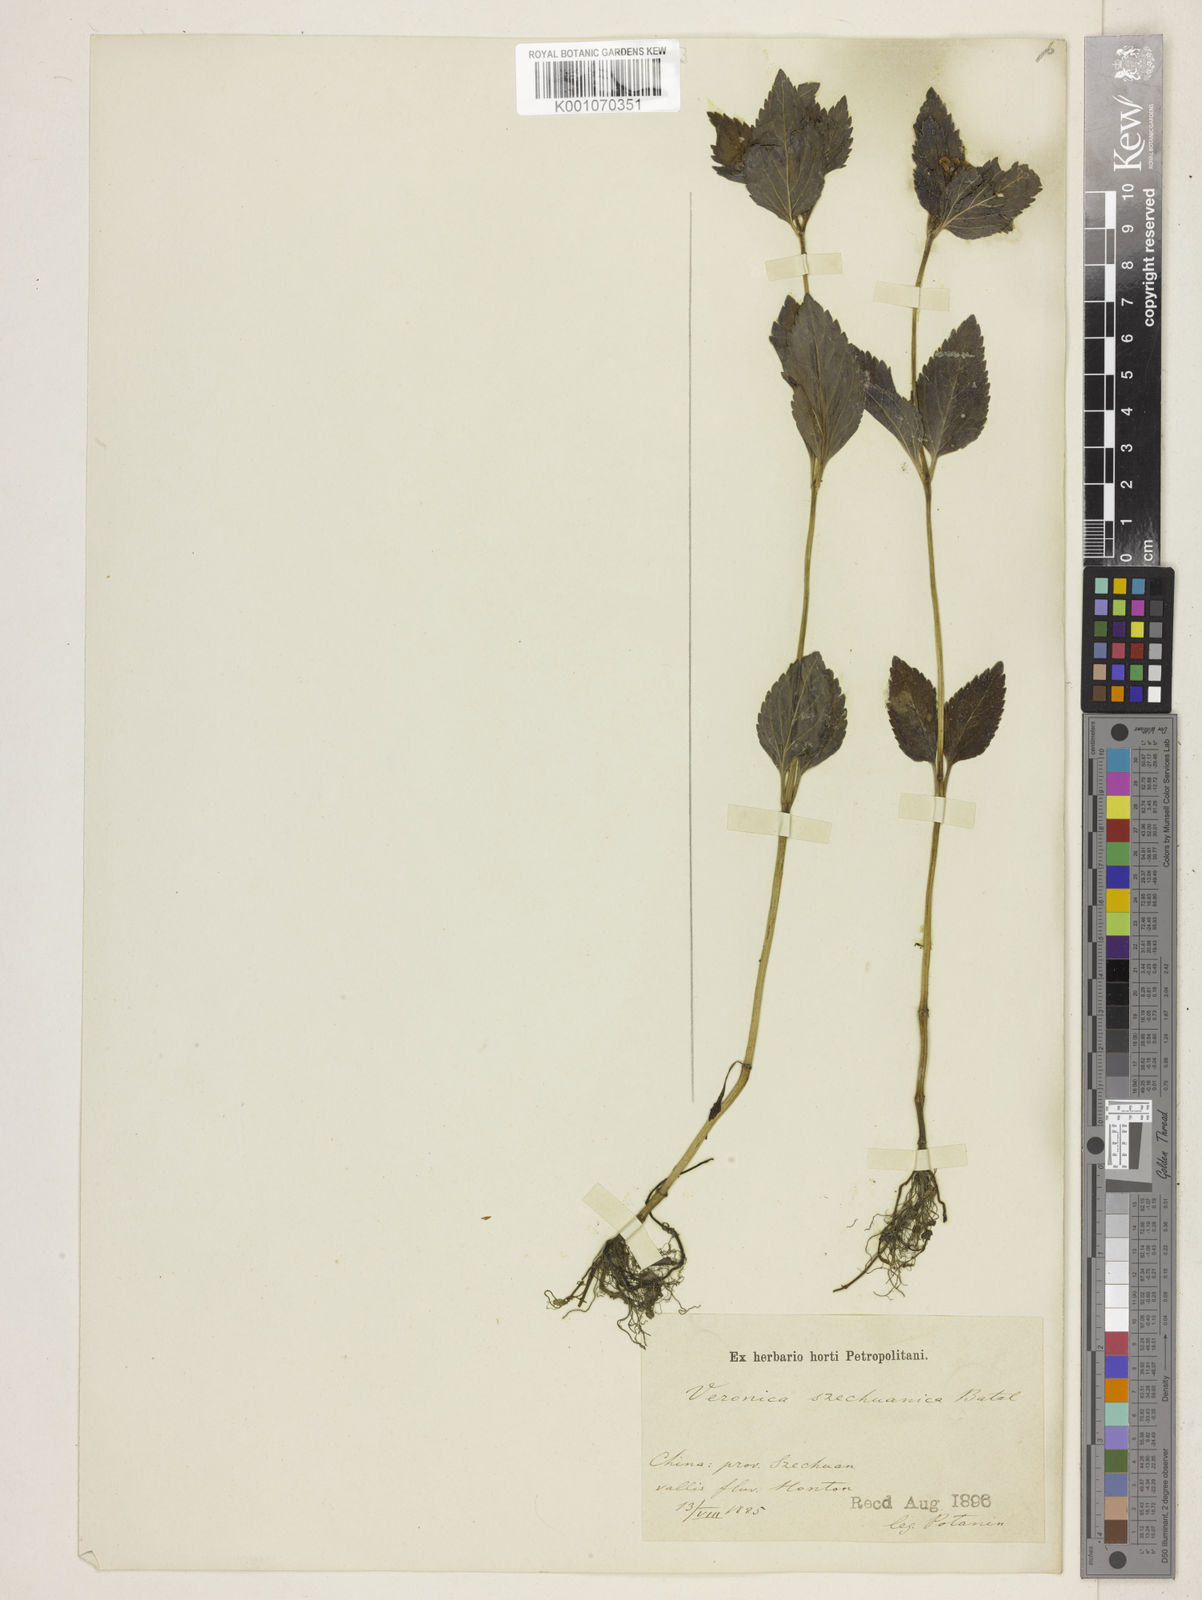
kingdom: Plantae
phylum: Tracheophyta
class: Magnoliopsida
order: Lamiales
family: Plantaginaceae
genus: Veronica
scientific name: Veronica szechuanica
